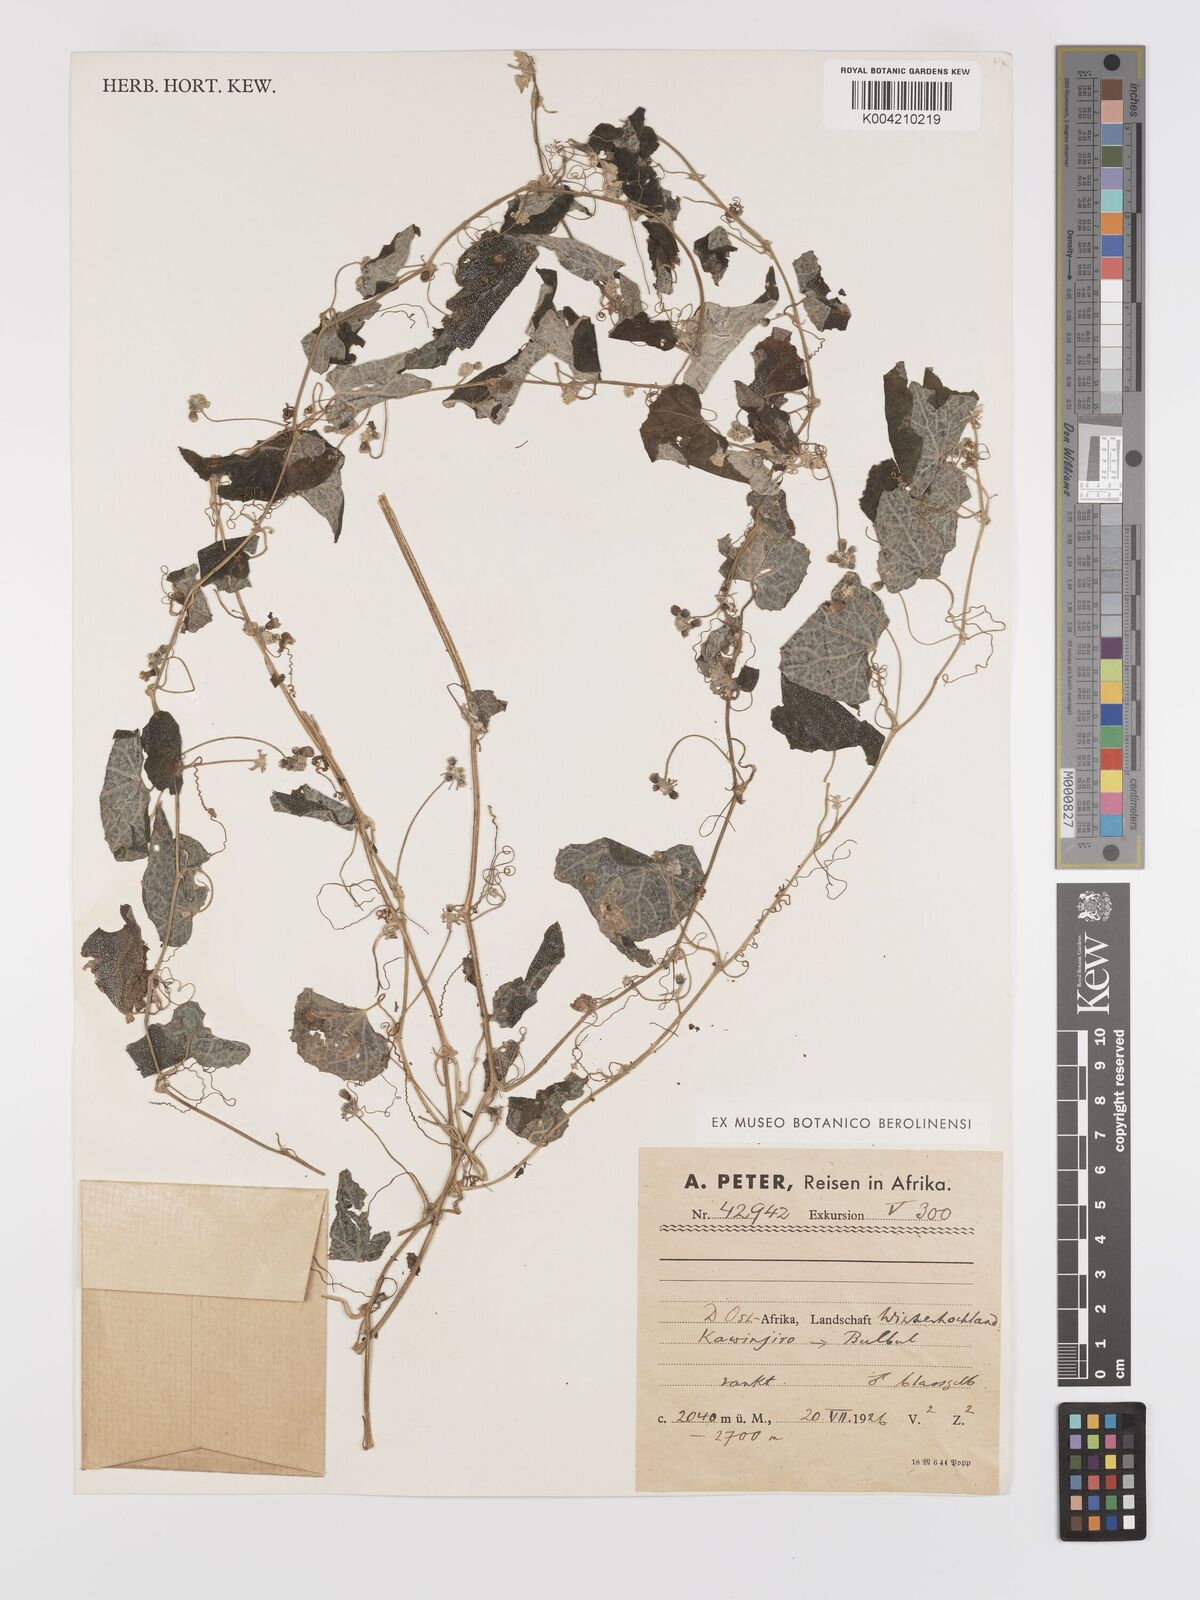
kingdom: Plantae
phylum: Tracheophyta
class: Magnoliopsida
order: Cucurbitales
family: Cucurbitaceae
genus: Zehneria
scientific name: Zehneria scabra
